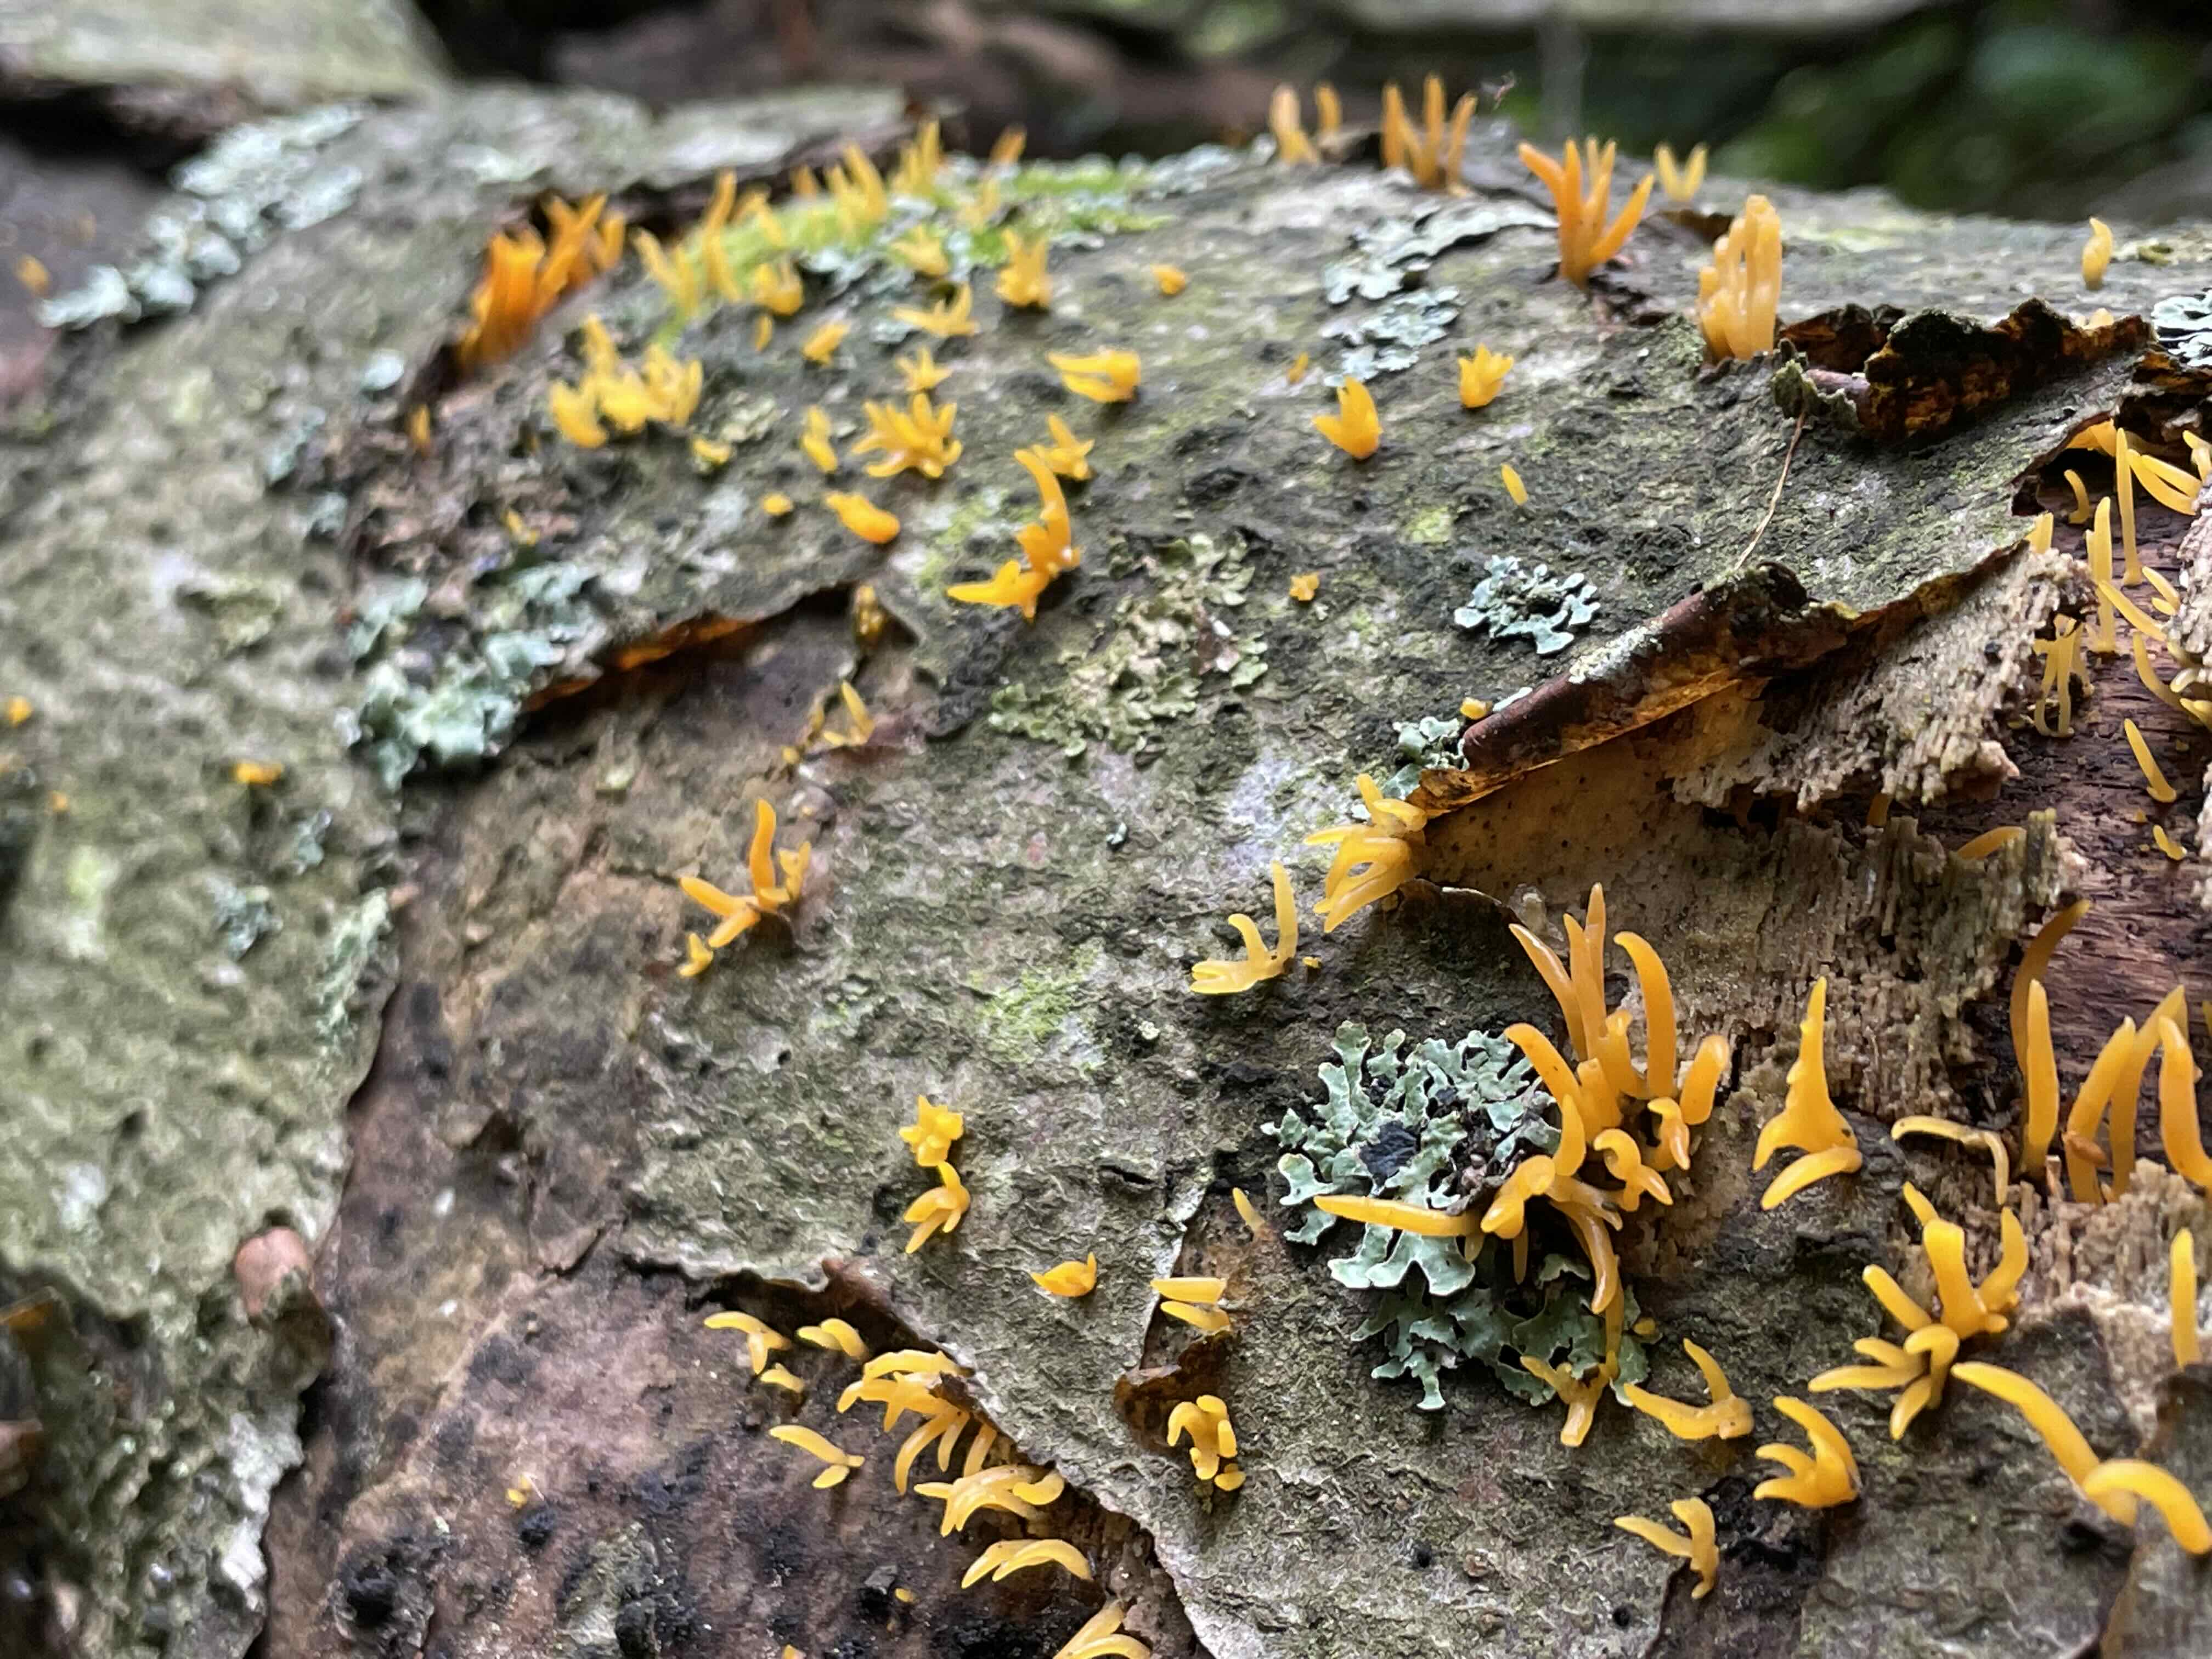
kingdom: Fungi
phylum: Basidiomycota
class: Dacrymycetes
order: Dacrymycetales
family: Dacrymycetaceae
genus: Calocera
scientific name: Calocera cornea
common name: liden guldgaffel
